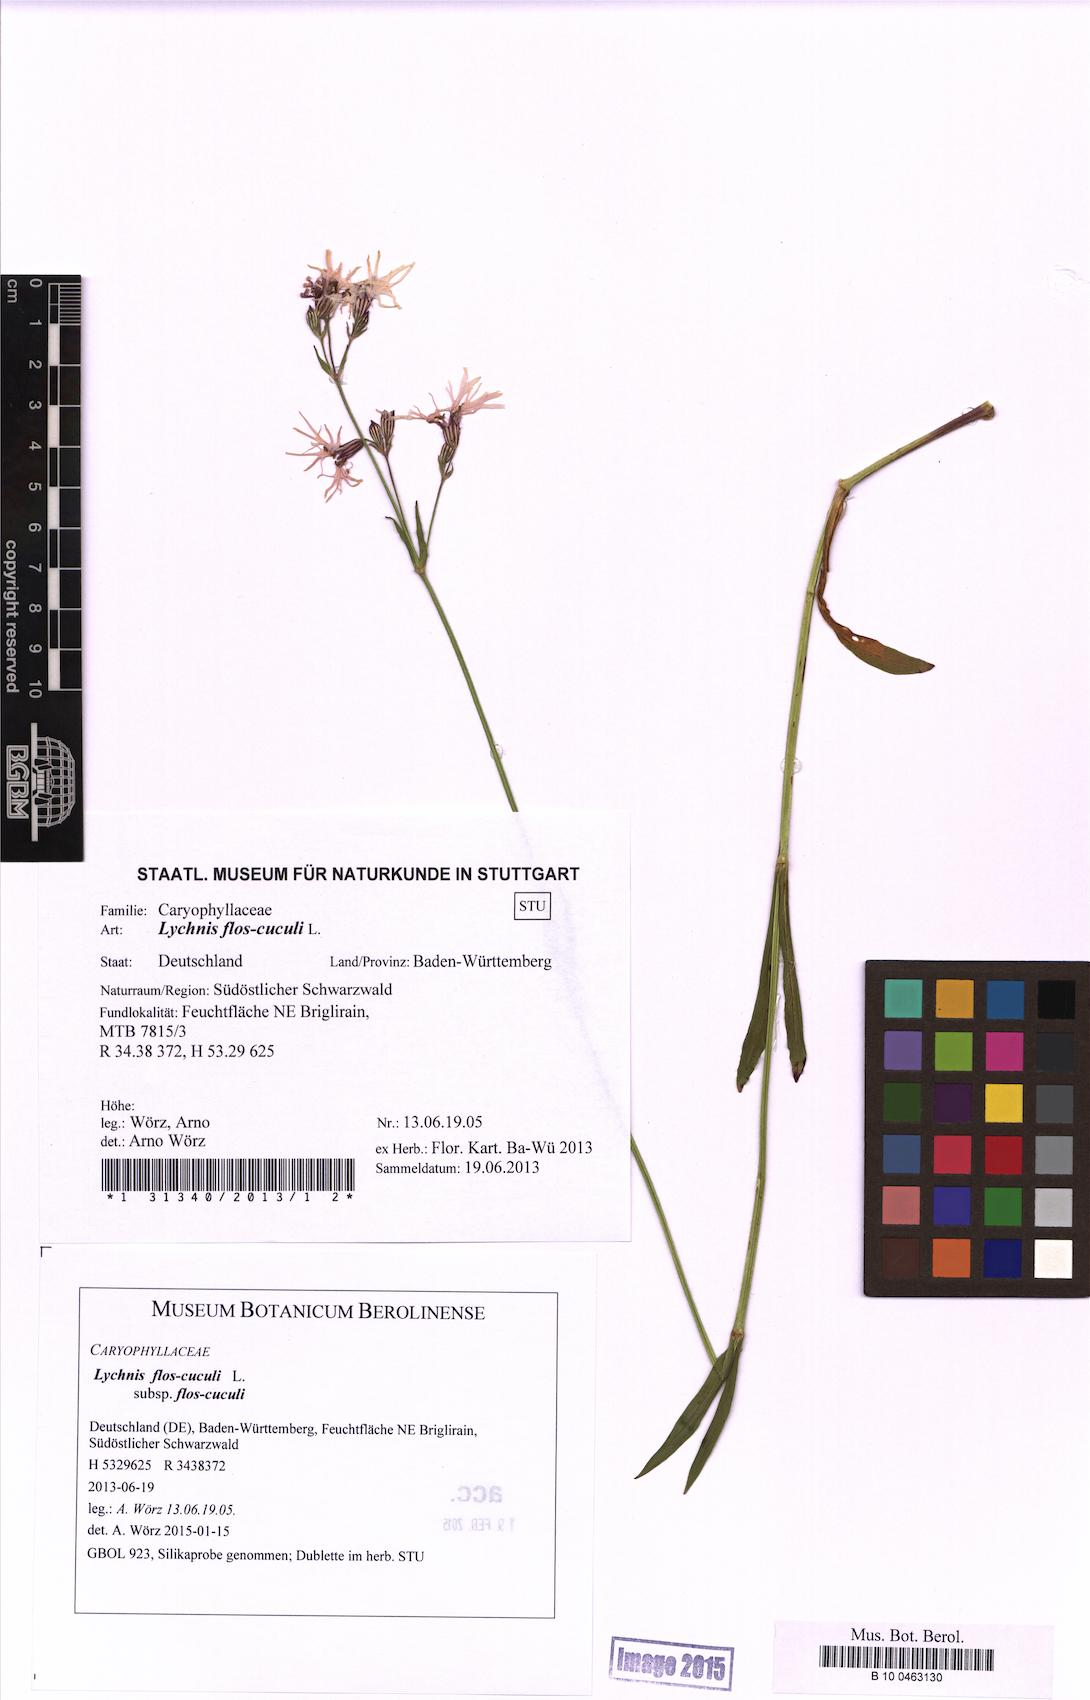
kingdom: Plantae
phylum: Tracheophyta
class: Magnoliopsida
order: Caryophyllales
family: Caryophyllaceae
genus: Silene
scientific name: Silene flos-cuculi
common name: Ragged-robin
